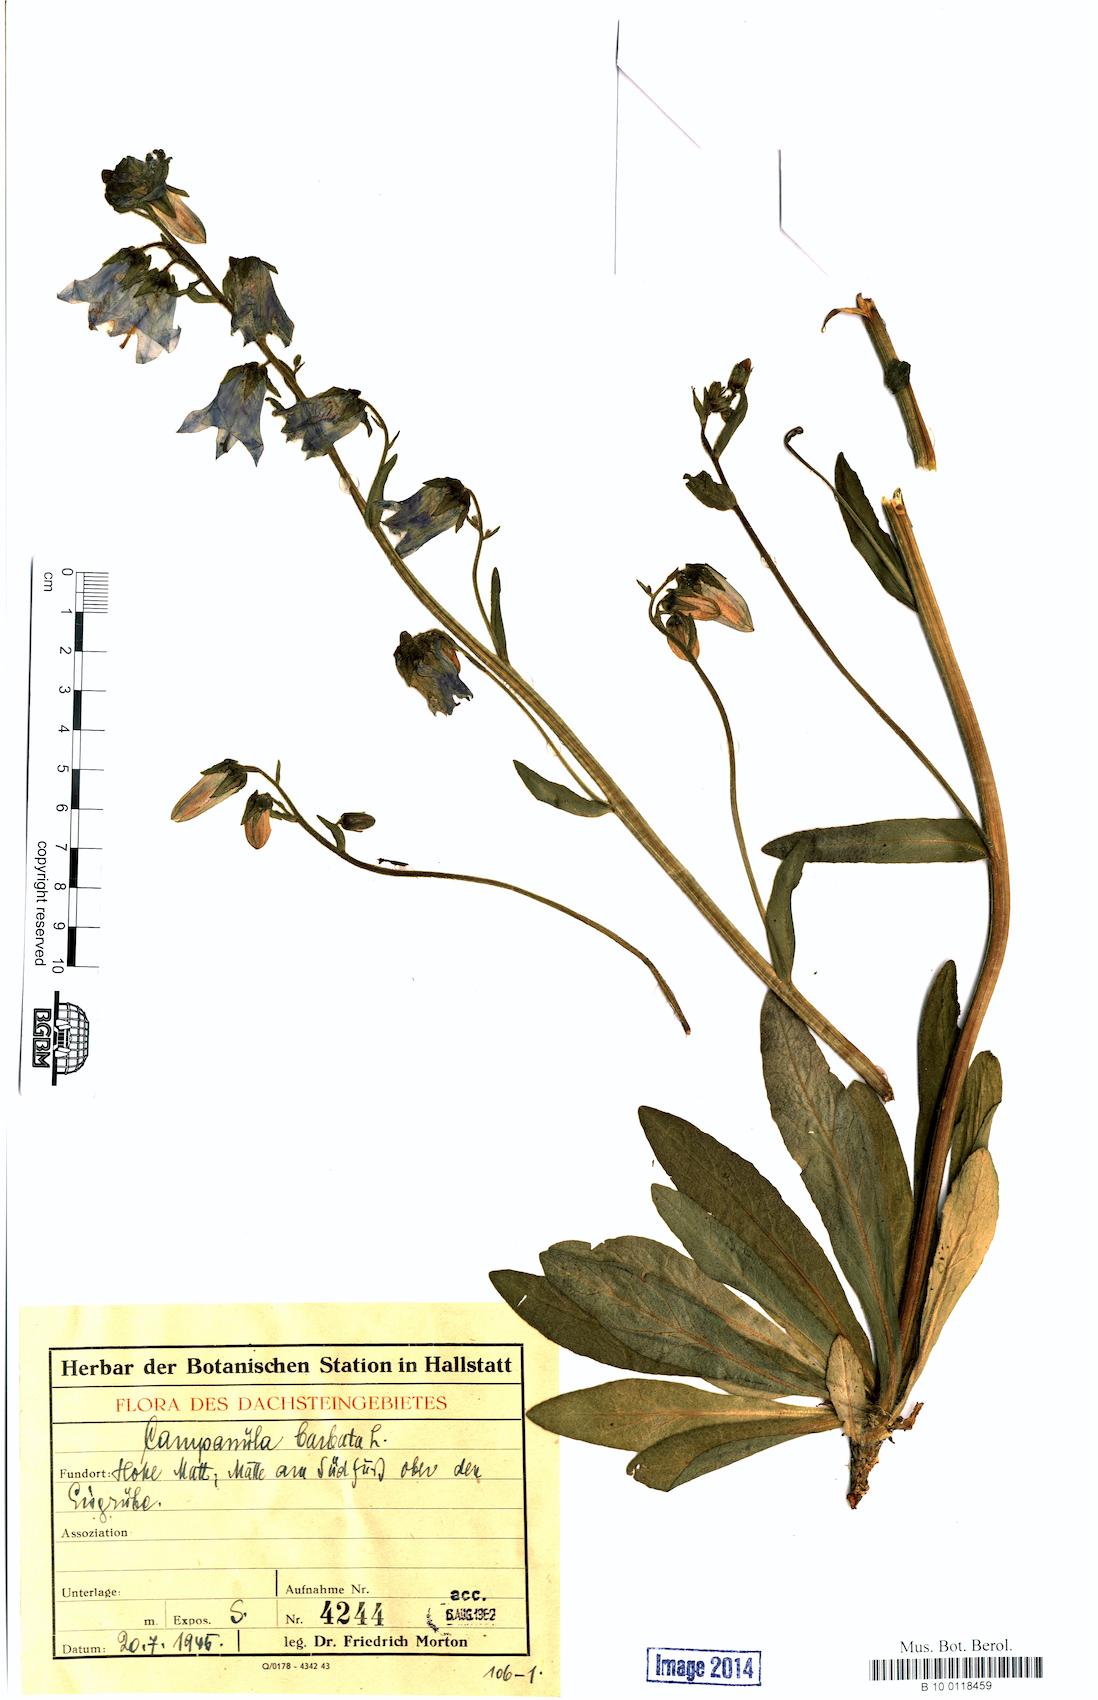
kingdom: Plantae
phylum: Tracheophyta
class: Magnoliopsida
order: Asterales
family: Campanulaceae
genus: Campanula
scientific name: Campanula barbata
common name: Bearded bellflower
